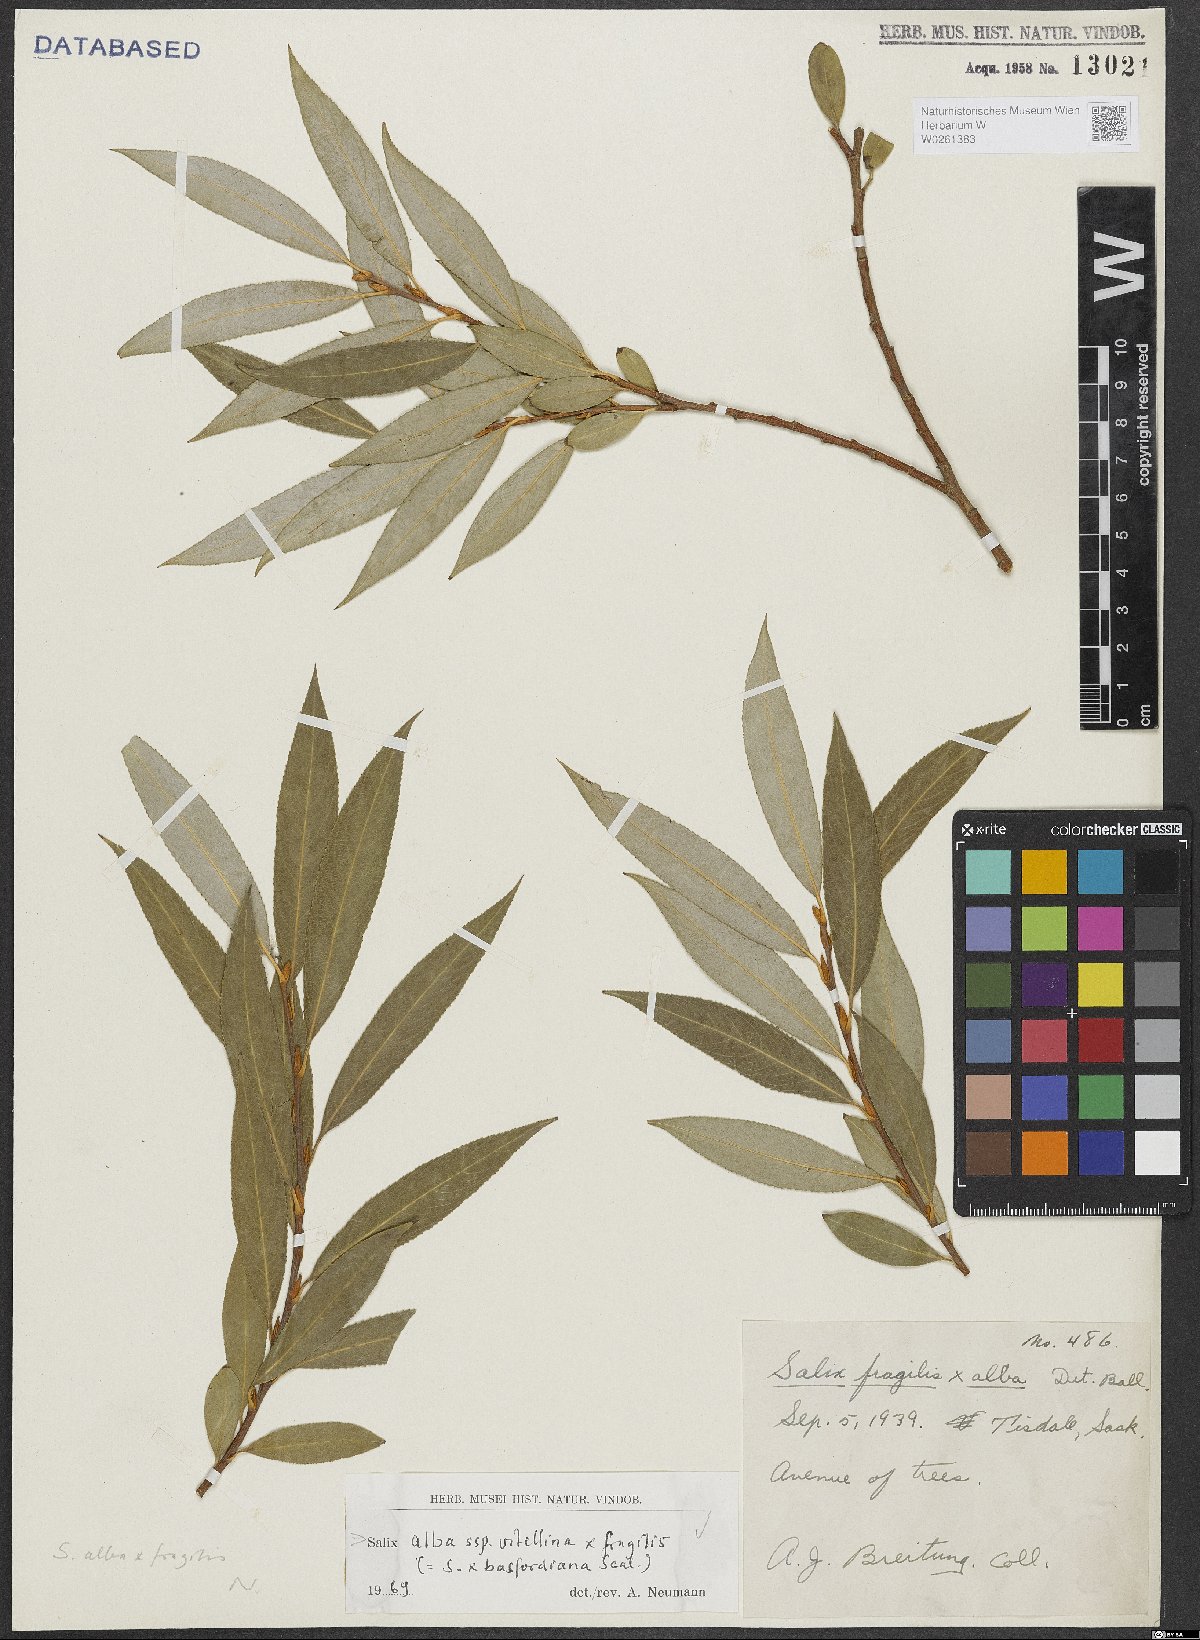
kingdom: Plantae
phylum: Tracheophyta
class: Magnoliopsida
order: Malpighiales
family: Salicaceae
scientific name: Salicaceae
